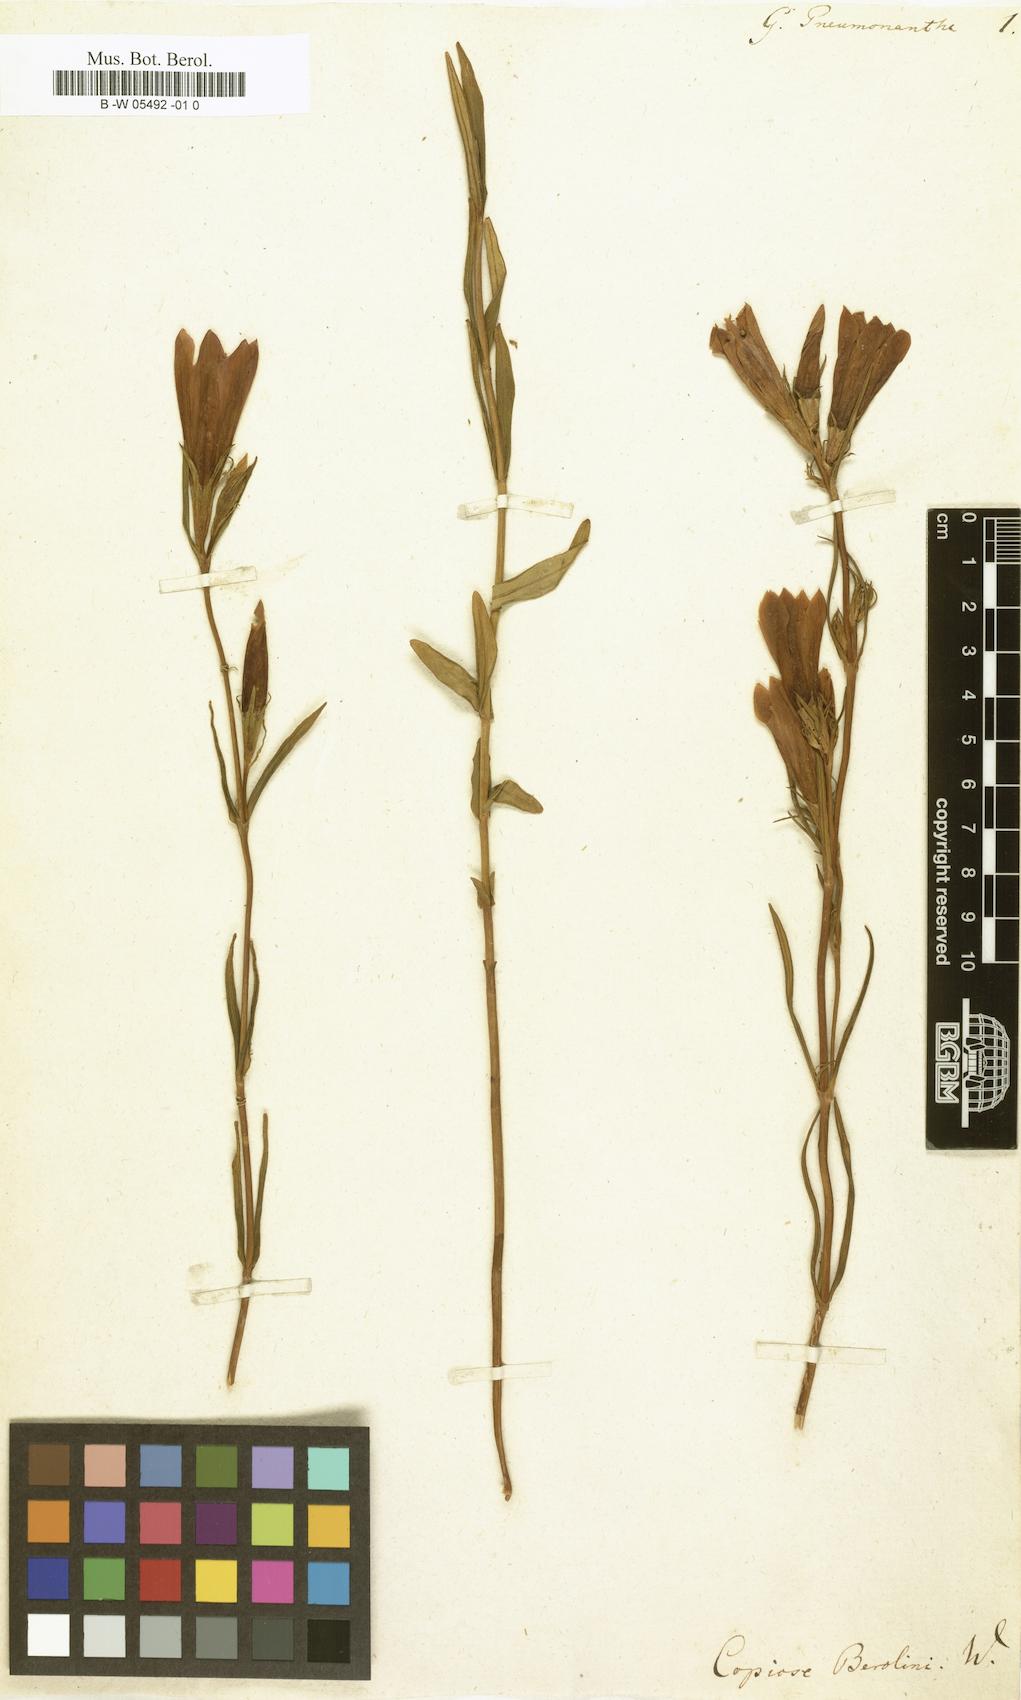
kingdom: Plantae
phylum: Tracheophyta
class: Magnoliopsida
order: Gentianales
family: Gentianaceae
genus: Gentiana
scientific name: Gentiana pneumonanthe
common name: Marsh gentian
